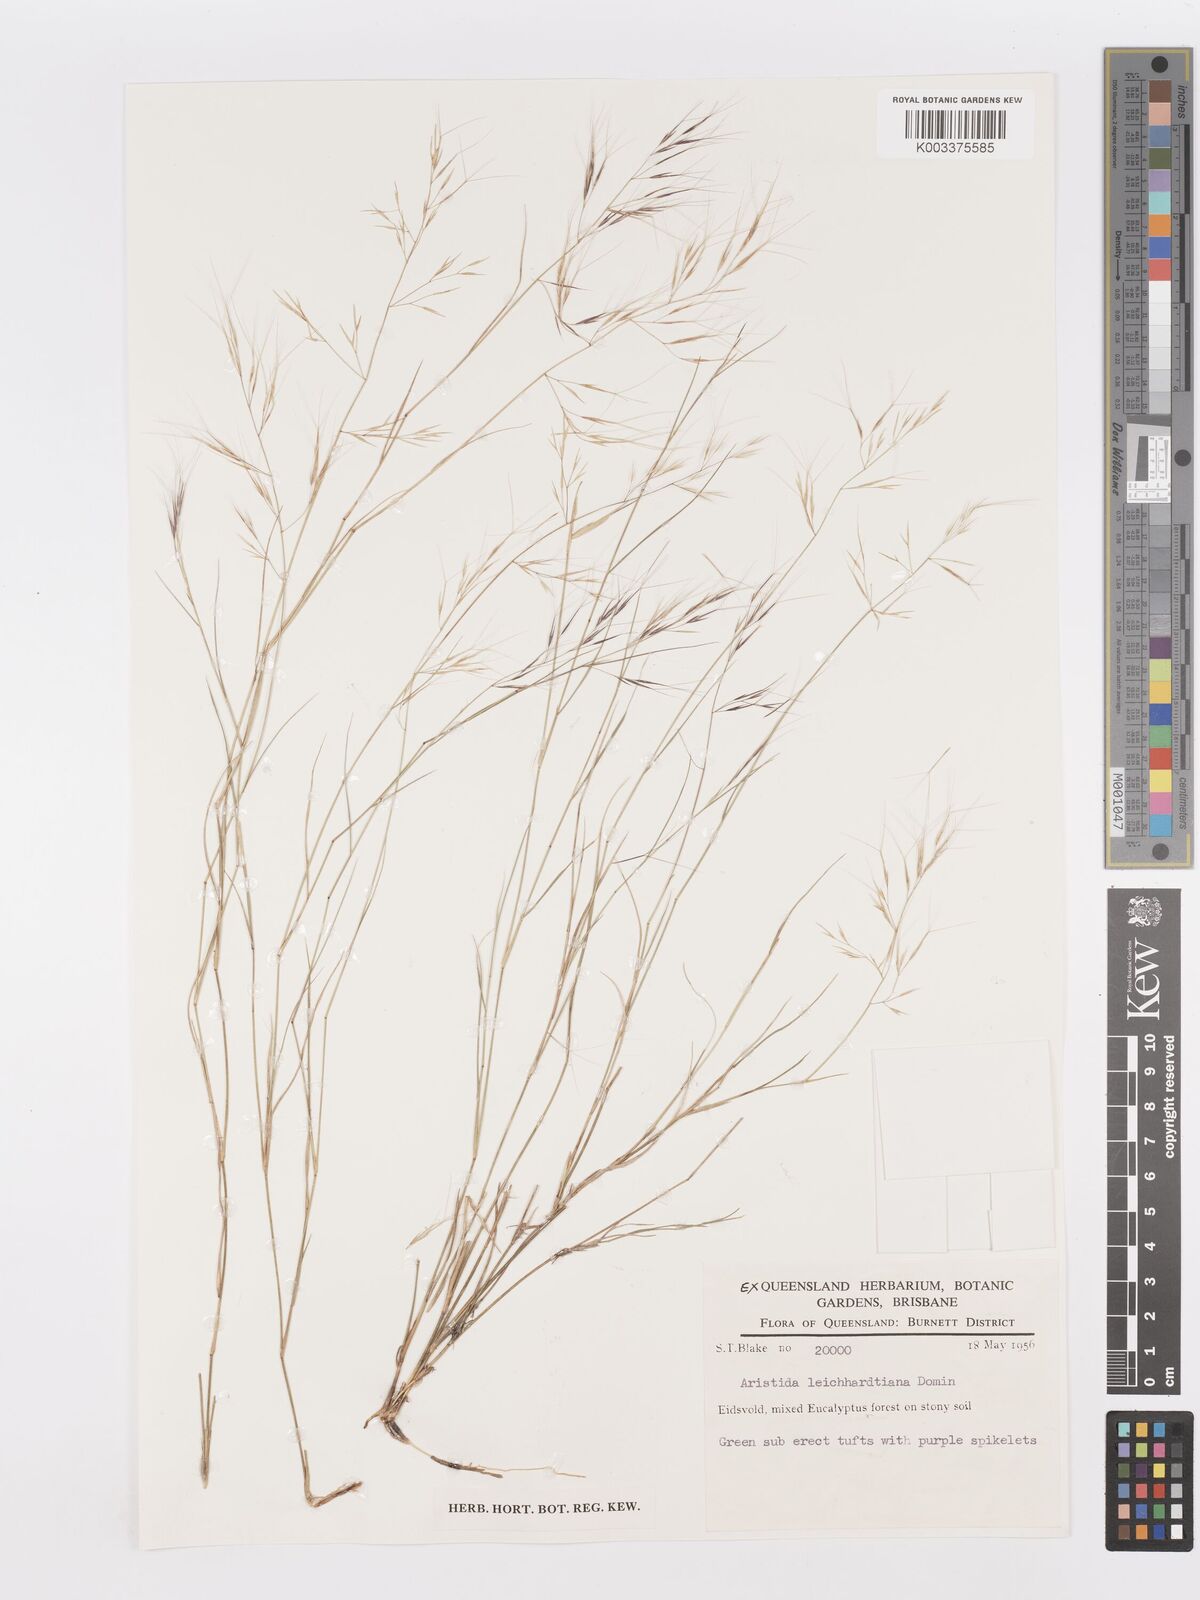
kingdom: Plantae
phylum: Tracheophyta
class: Liliopsida
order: Poales
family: Poaceae
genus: Aristida
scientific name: Aristida leichhardtiana
